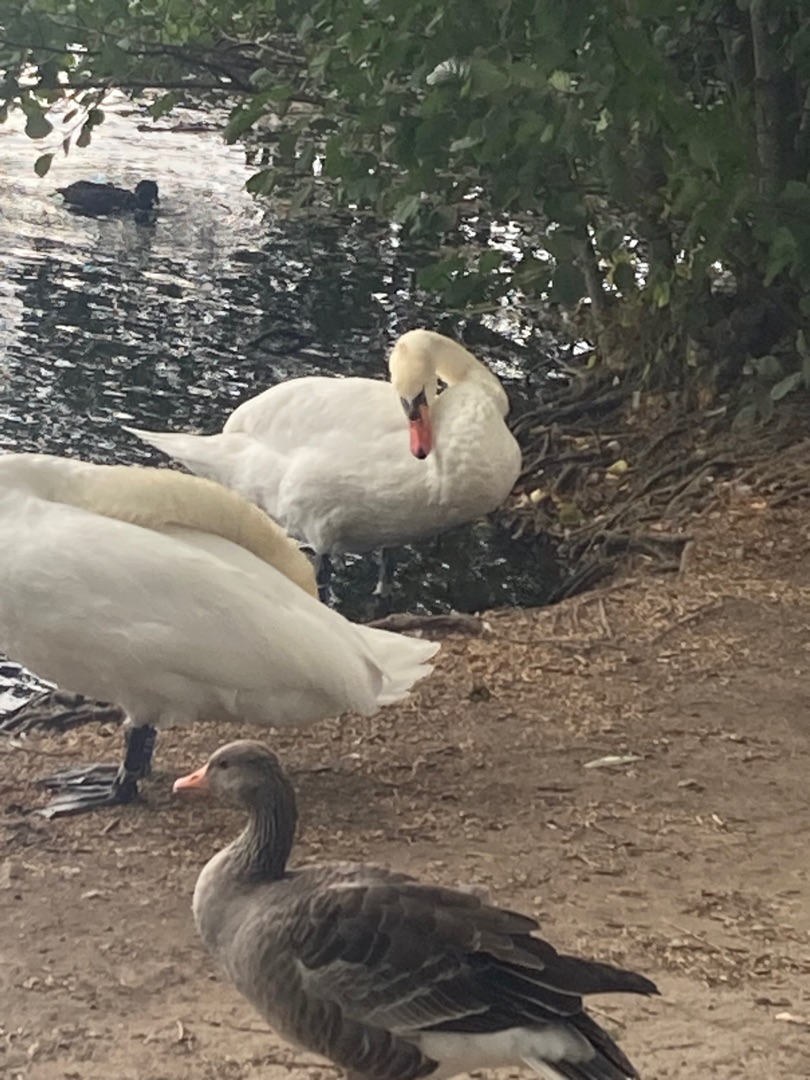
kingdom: Animalia
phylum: Chordata
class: Aves
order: Anseriformes
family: Anatidae
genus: Cygnus
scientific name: Cygnus olor
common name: Knopsvane
